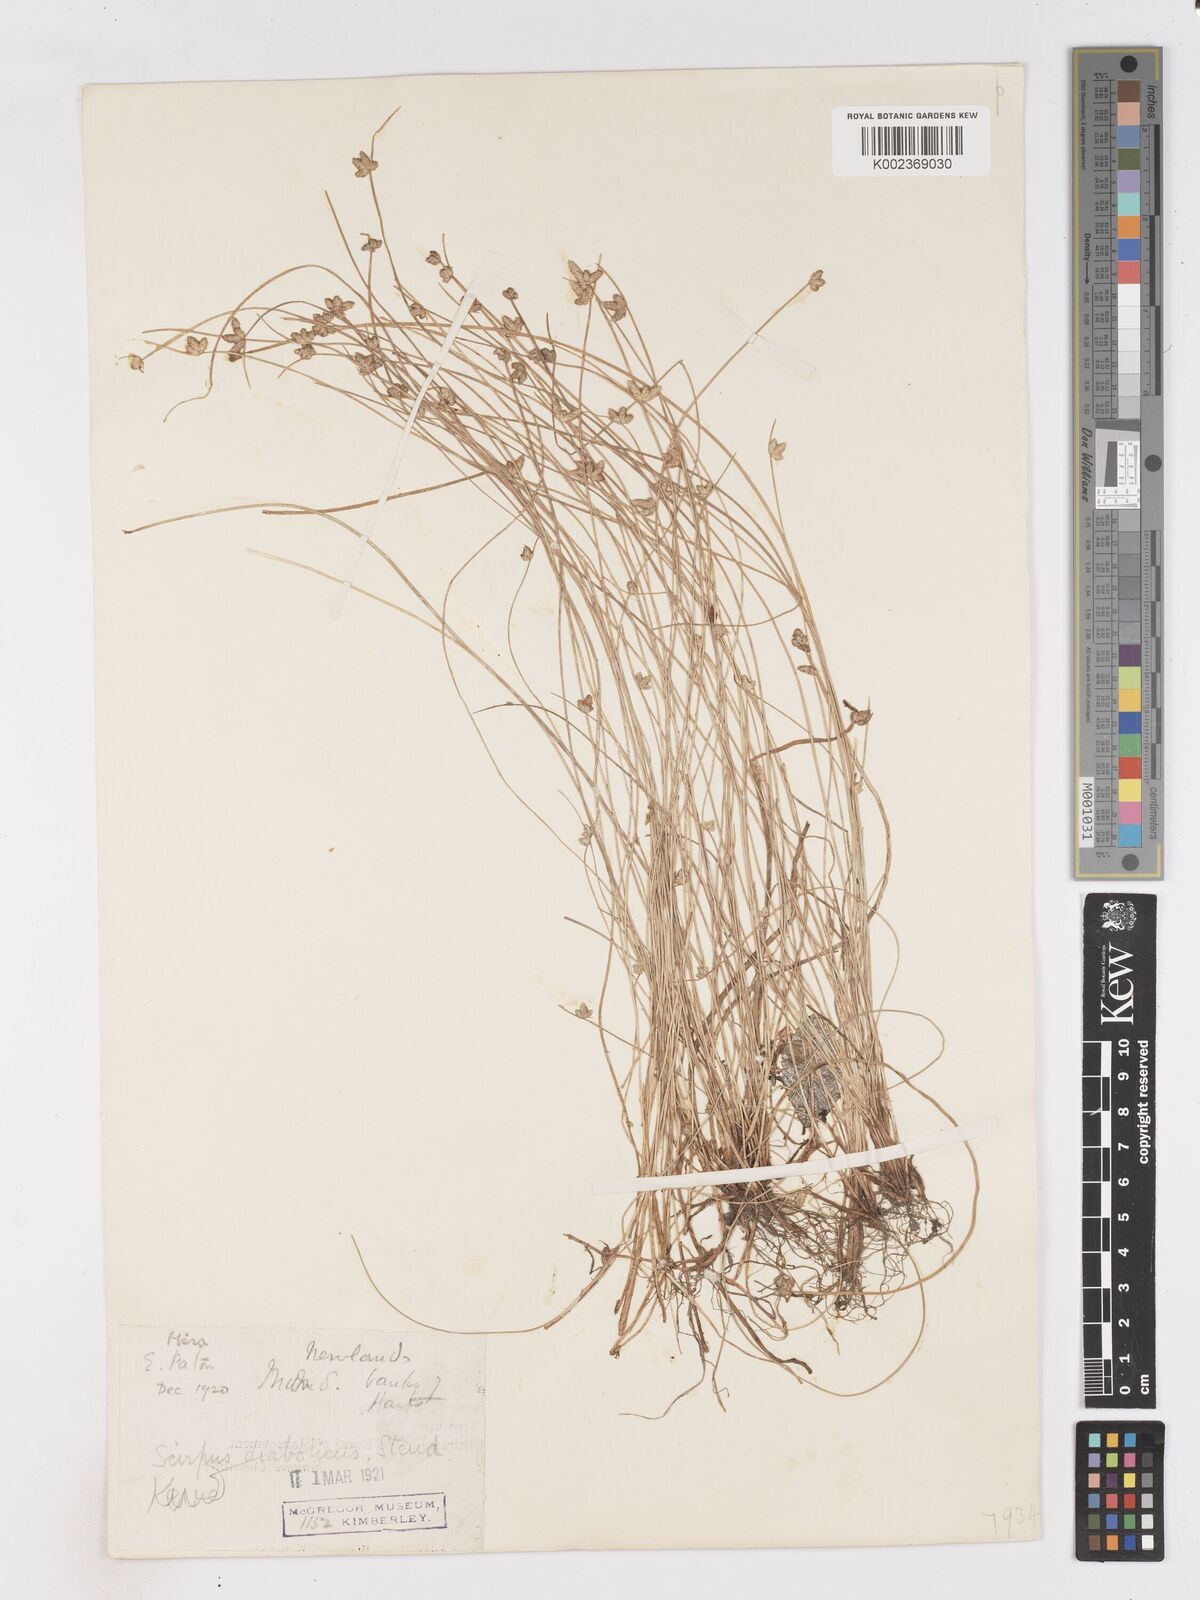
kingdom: Plantae
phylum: Tracheophyta
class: Liliopsida
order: Poales
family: Cyperaceae
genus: Isolepis
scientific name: Isolepis diabolica
